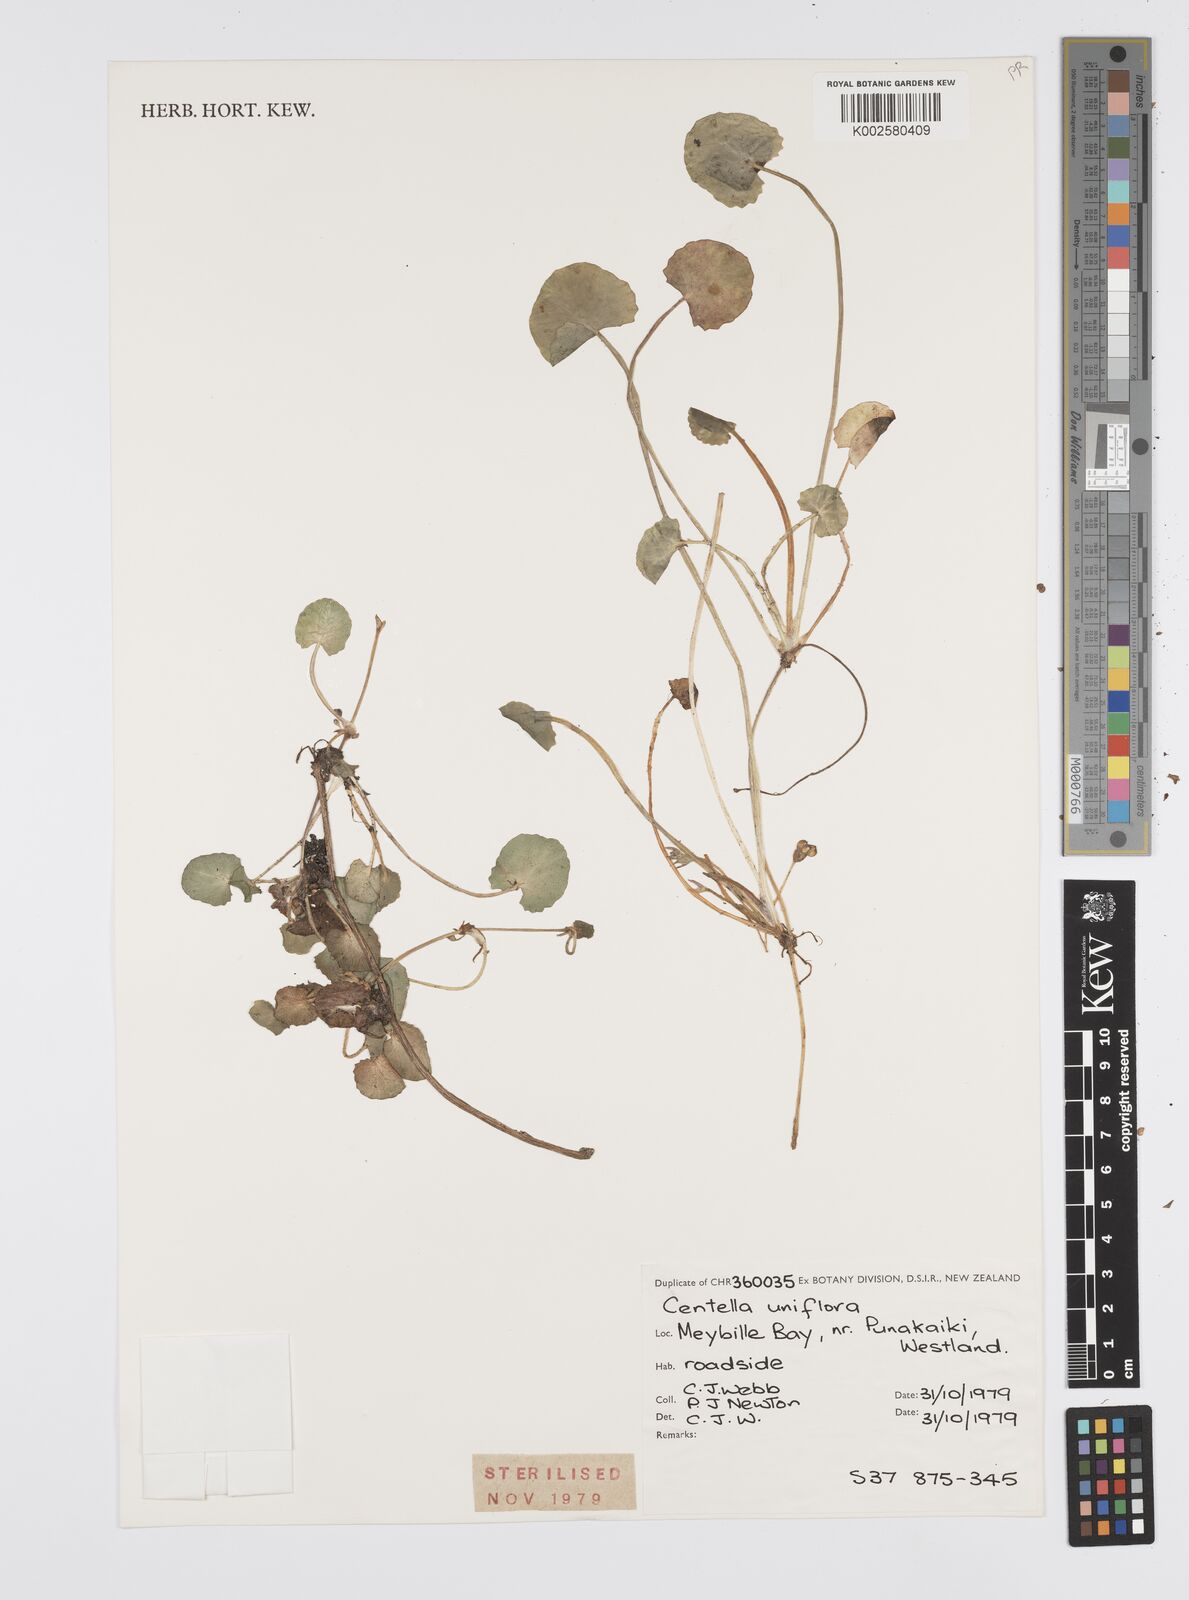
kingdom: Plantae
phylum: Tracheophyta
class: Magnoliopsida
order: Apiales
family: Apiaceae
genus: Centella
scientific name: Centella uniflora
